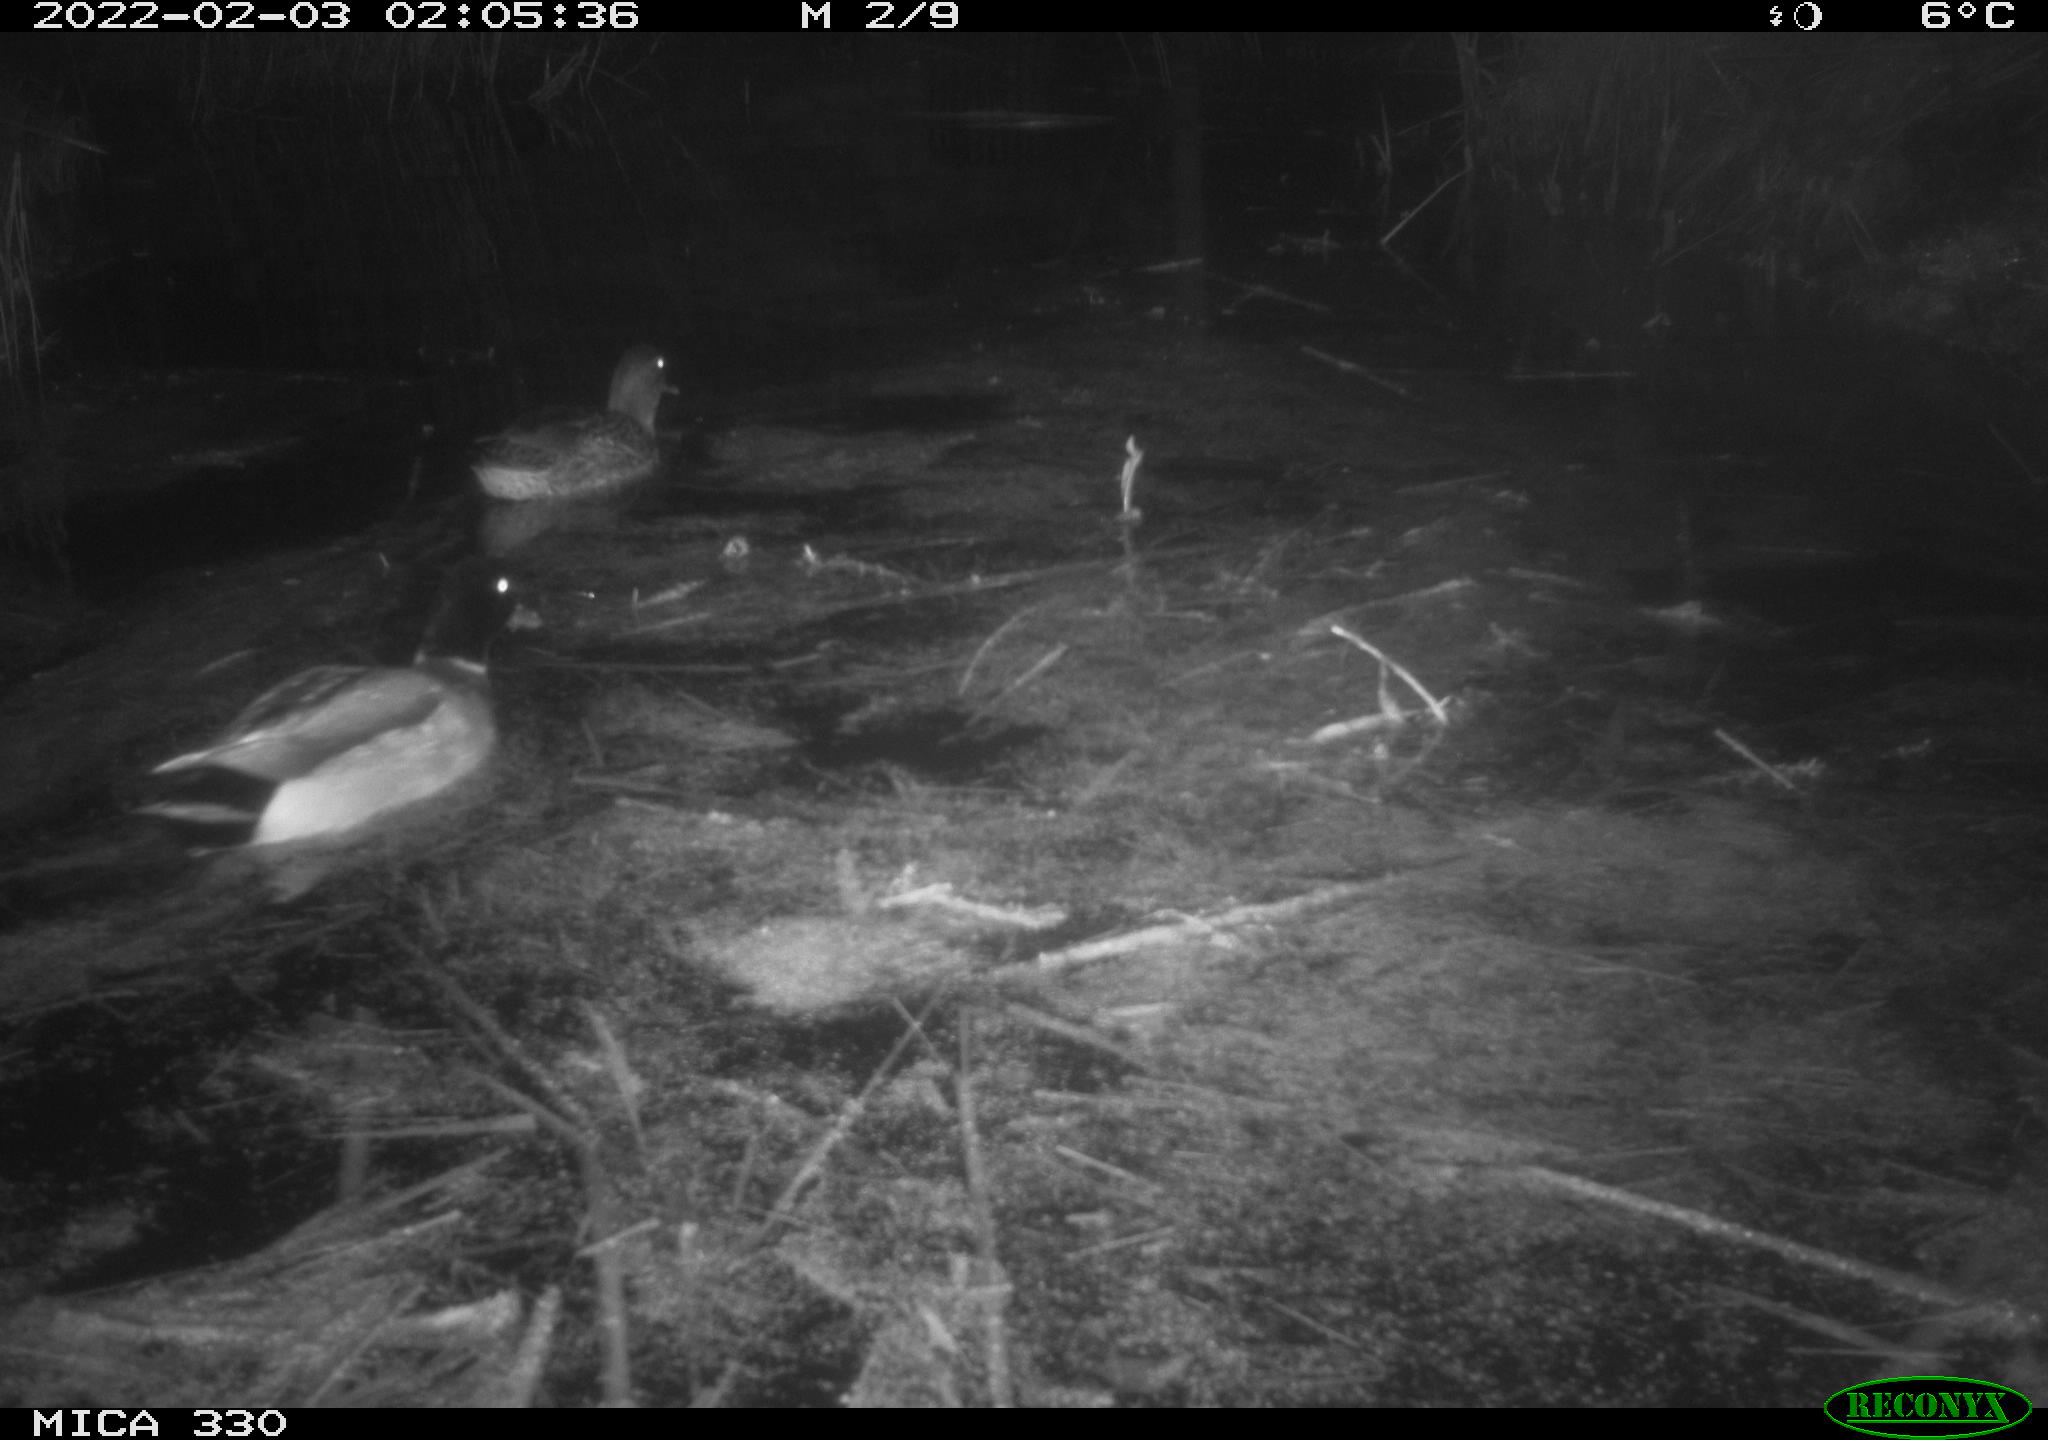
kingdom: Animalia
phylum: Chordata
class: Aves
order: Gruiformes
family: Rallidae
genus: Gallinula
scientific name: Gallinula chloropus
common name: Common moorhen
